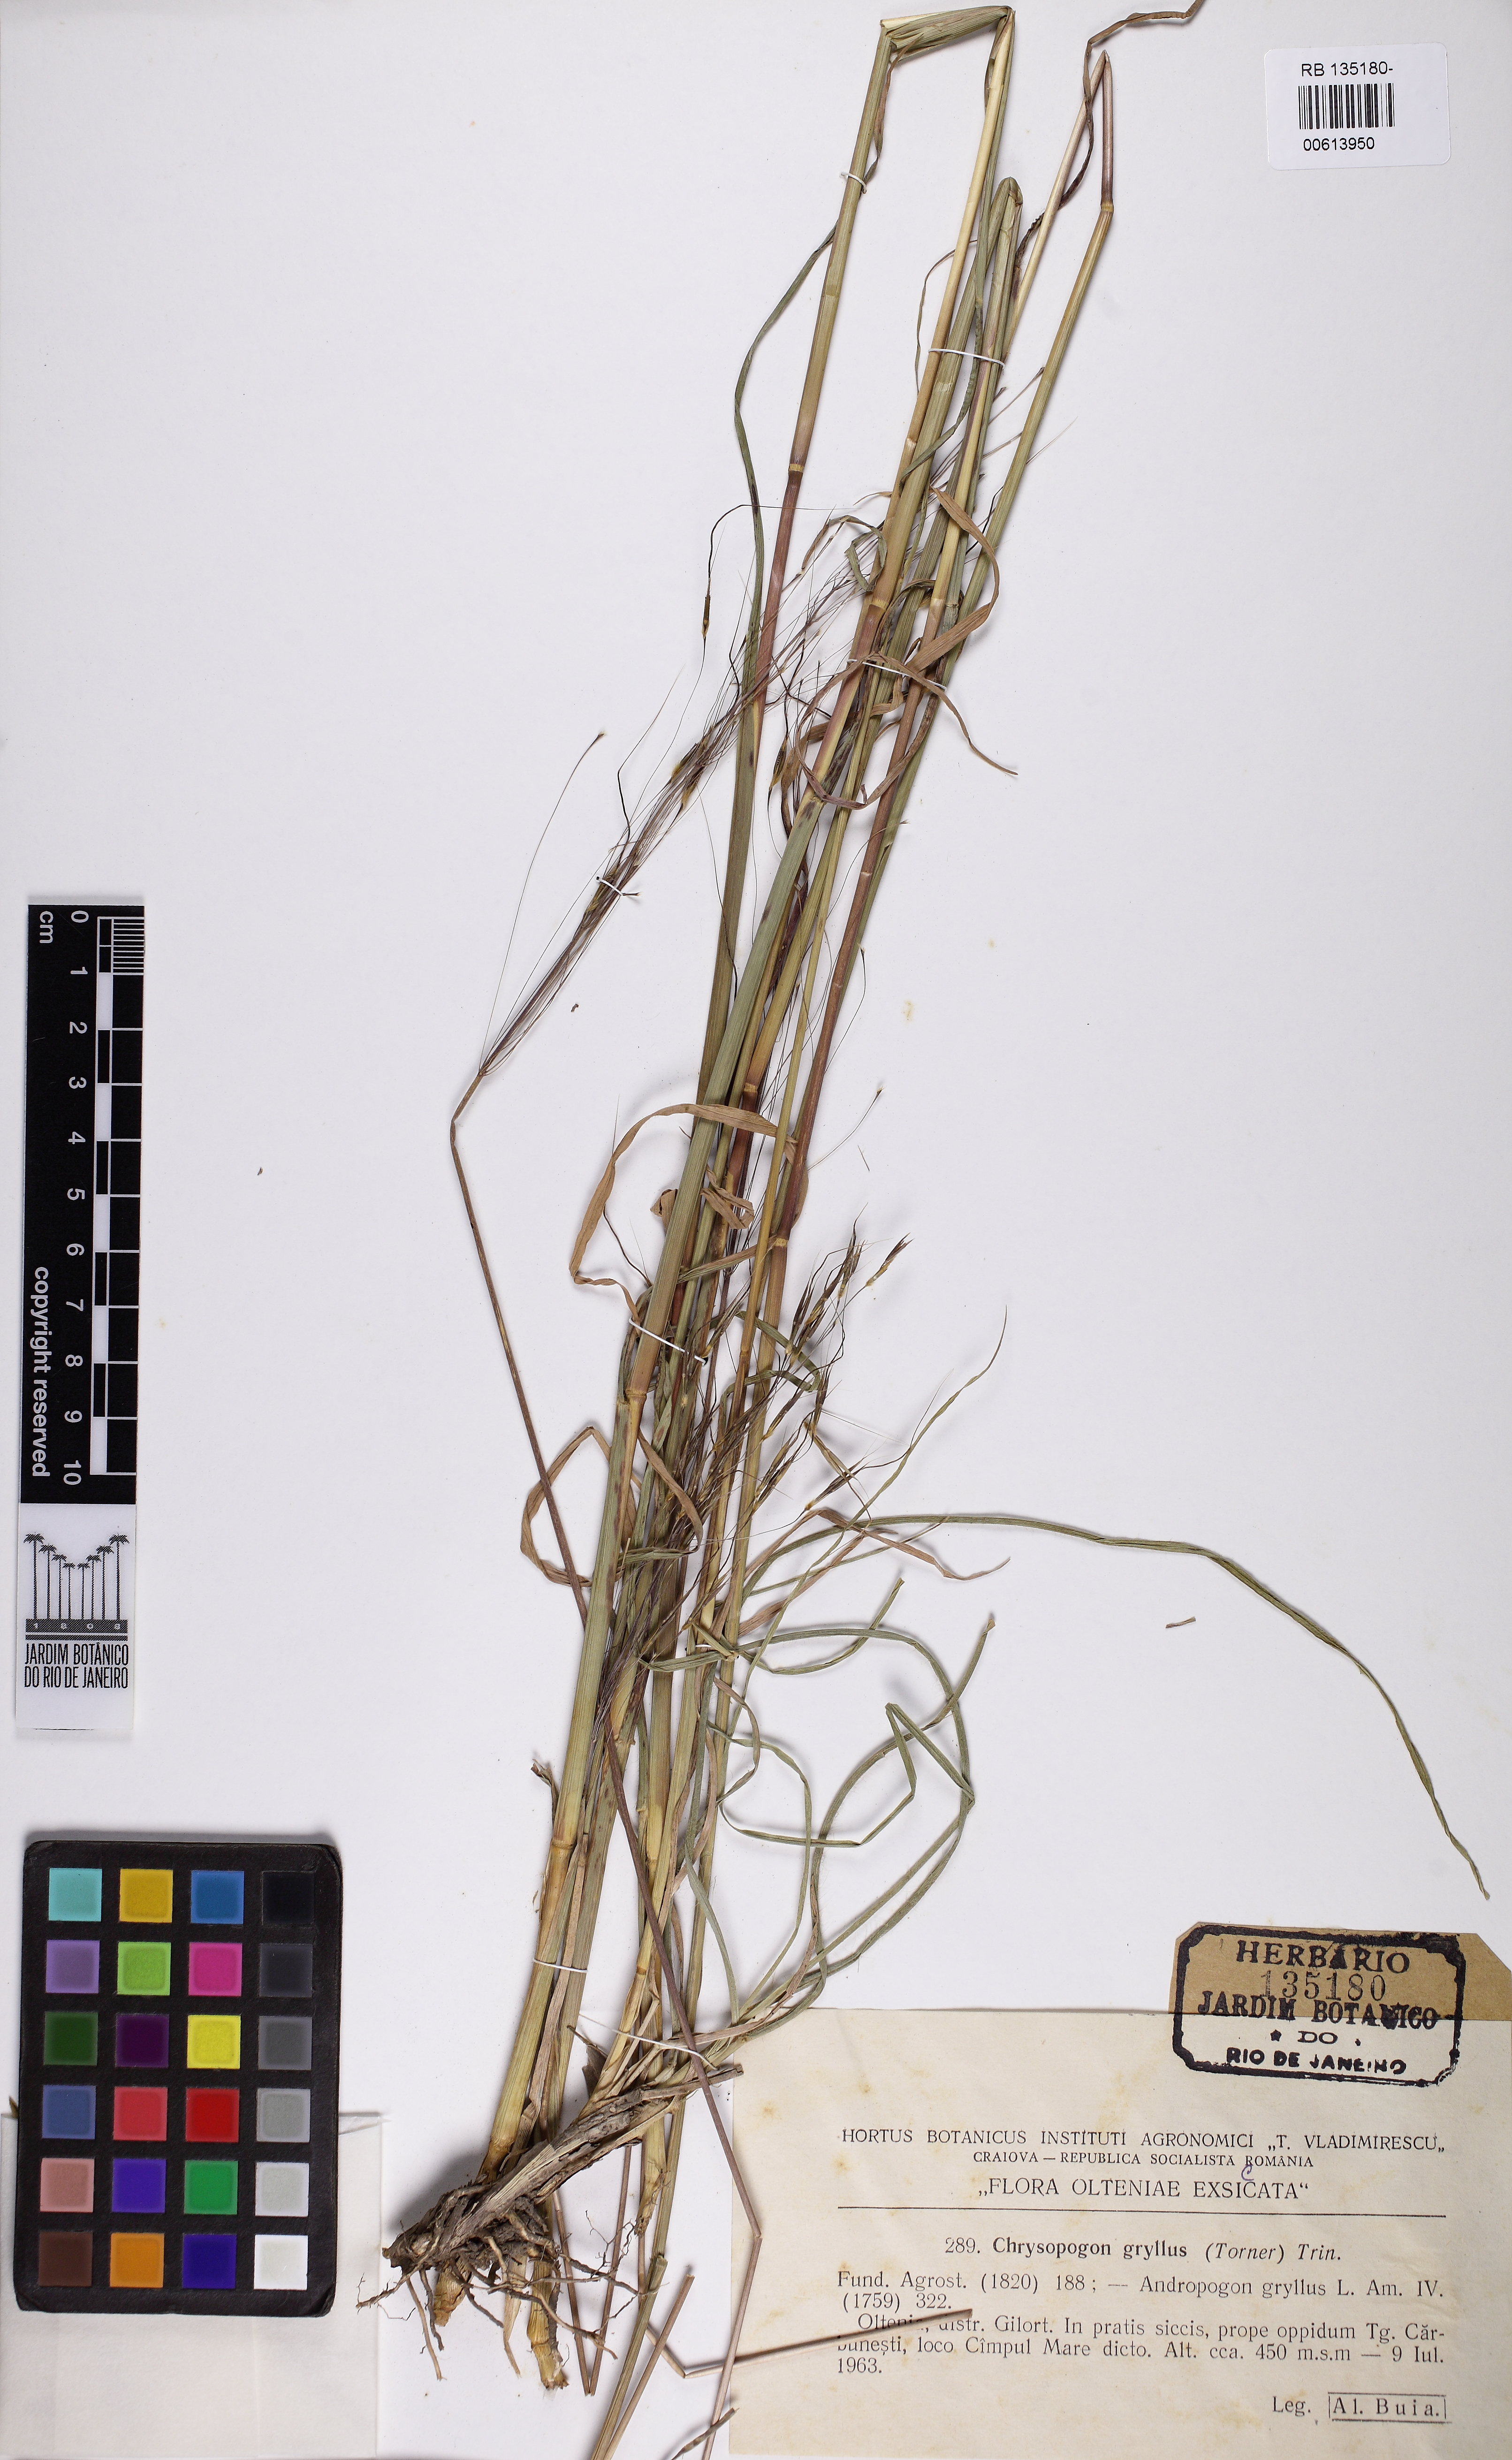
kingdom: Plantae
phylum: Tracheophyta
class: Liliopsida
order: Poales
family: Poaceae
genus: Chrysopogon
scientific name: Chrysopogon gryllus
